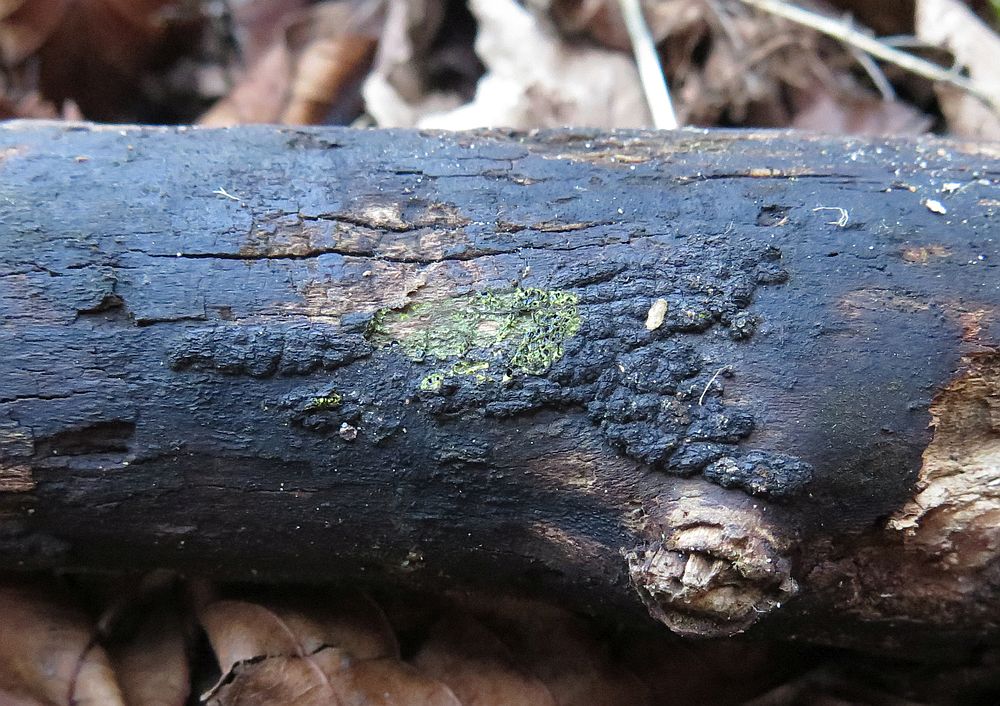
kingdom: Fungi
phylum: Ascomycota
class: Sordariomycetes
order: Xylariales
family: Diatrypaceae
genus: Eutypa
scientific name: Eutypa flavovirens
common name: grønkødet kulskorpe
